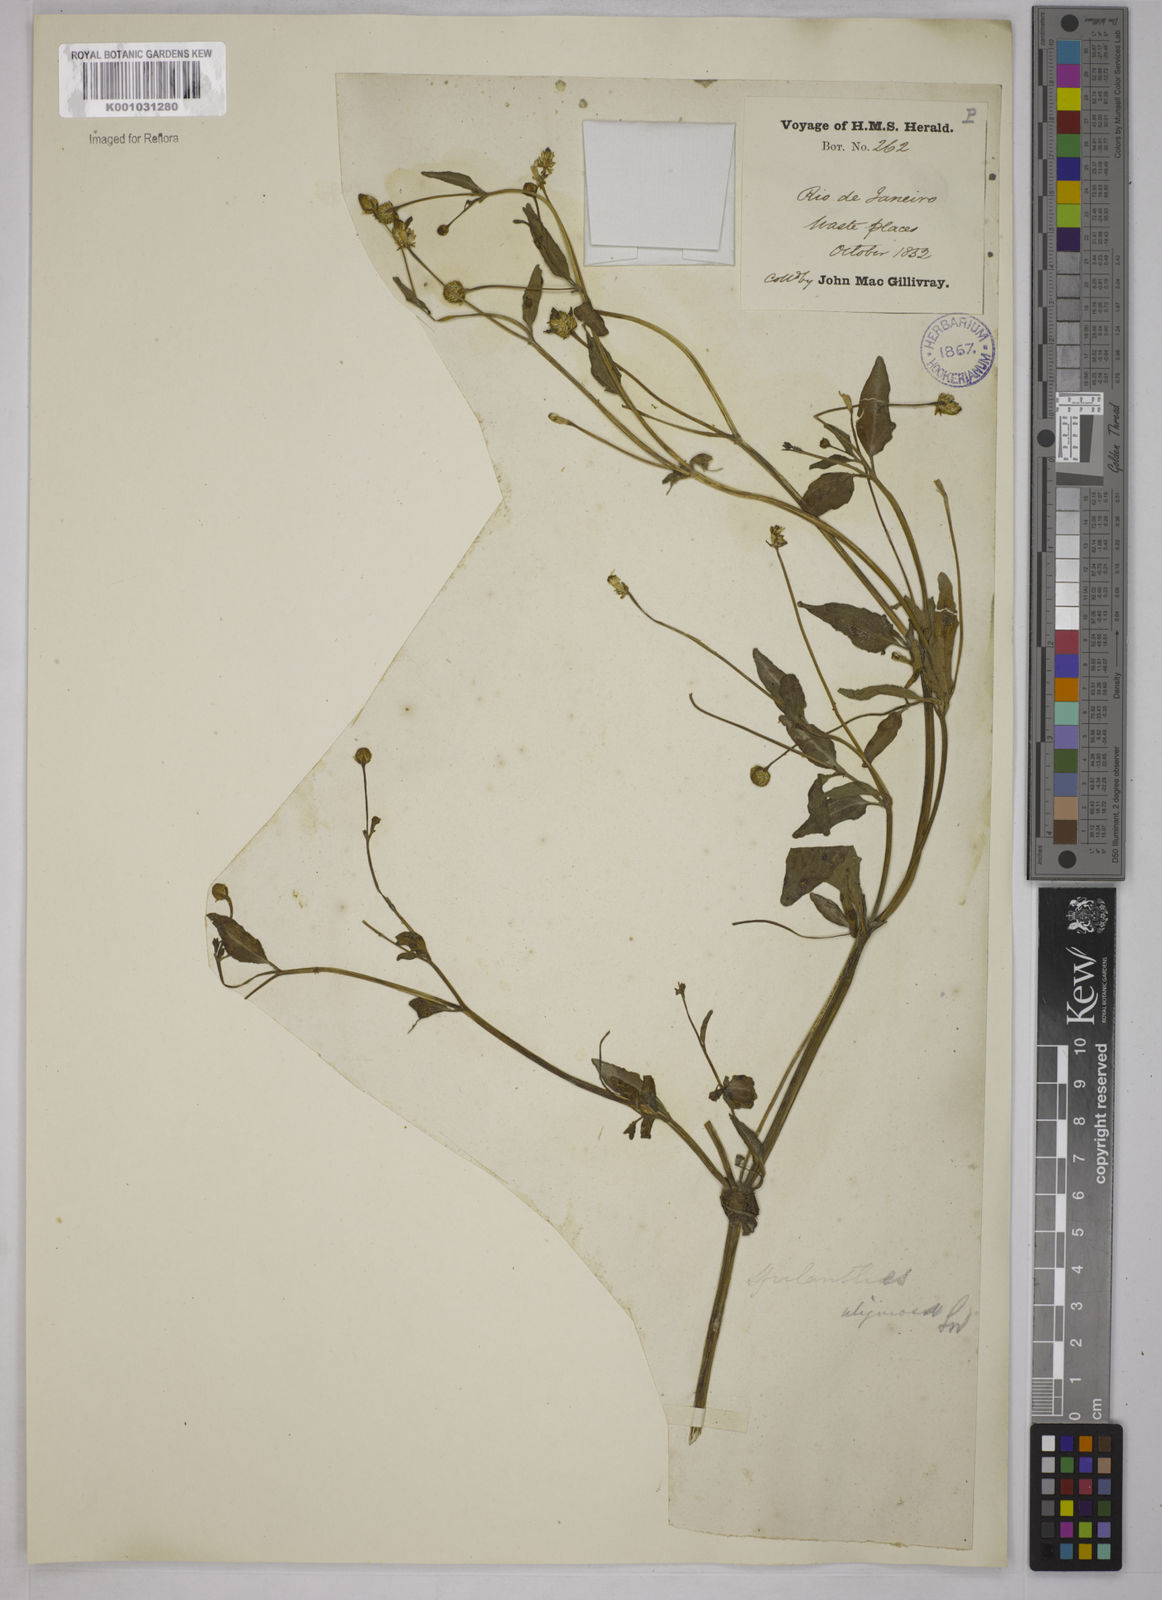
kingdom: Plantae
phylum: Tracheophyta
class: Magnoliopsida
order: Asterales
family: Asteraceae
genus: Acmella
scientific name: Acmella uliginosa
